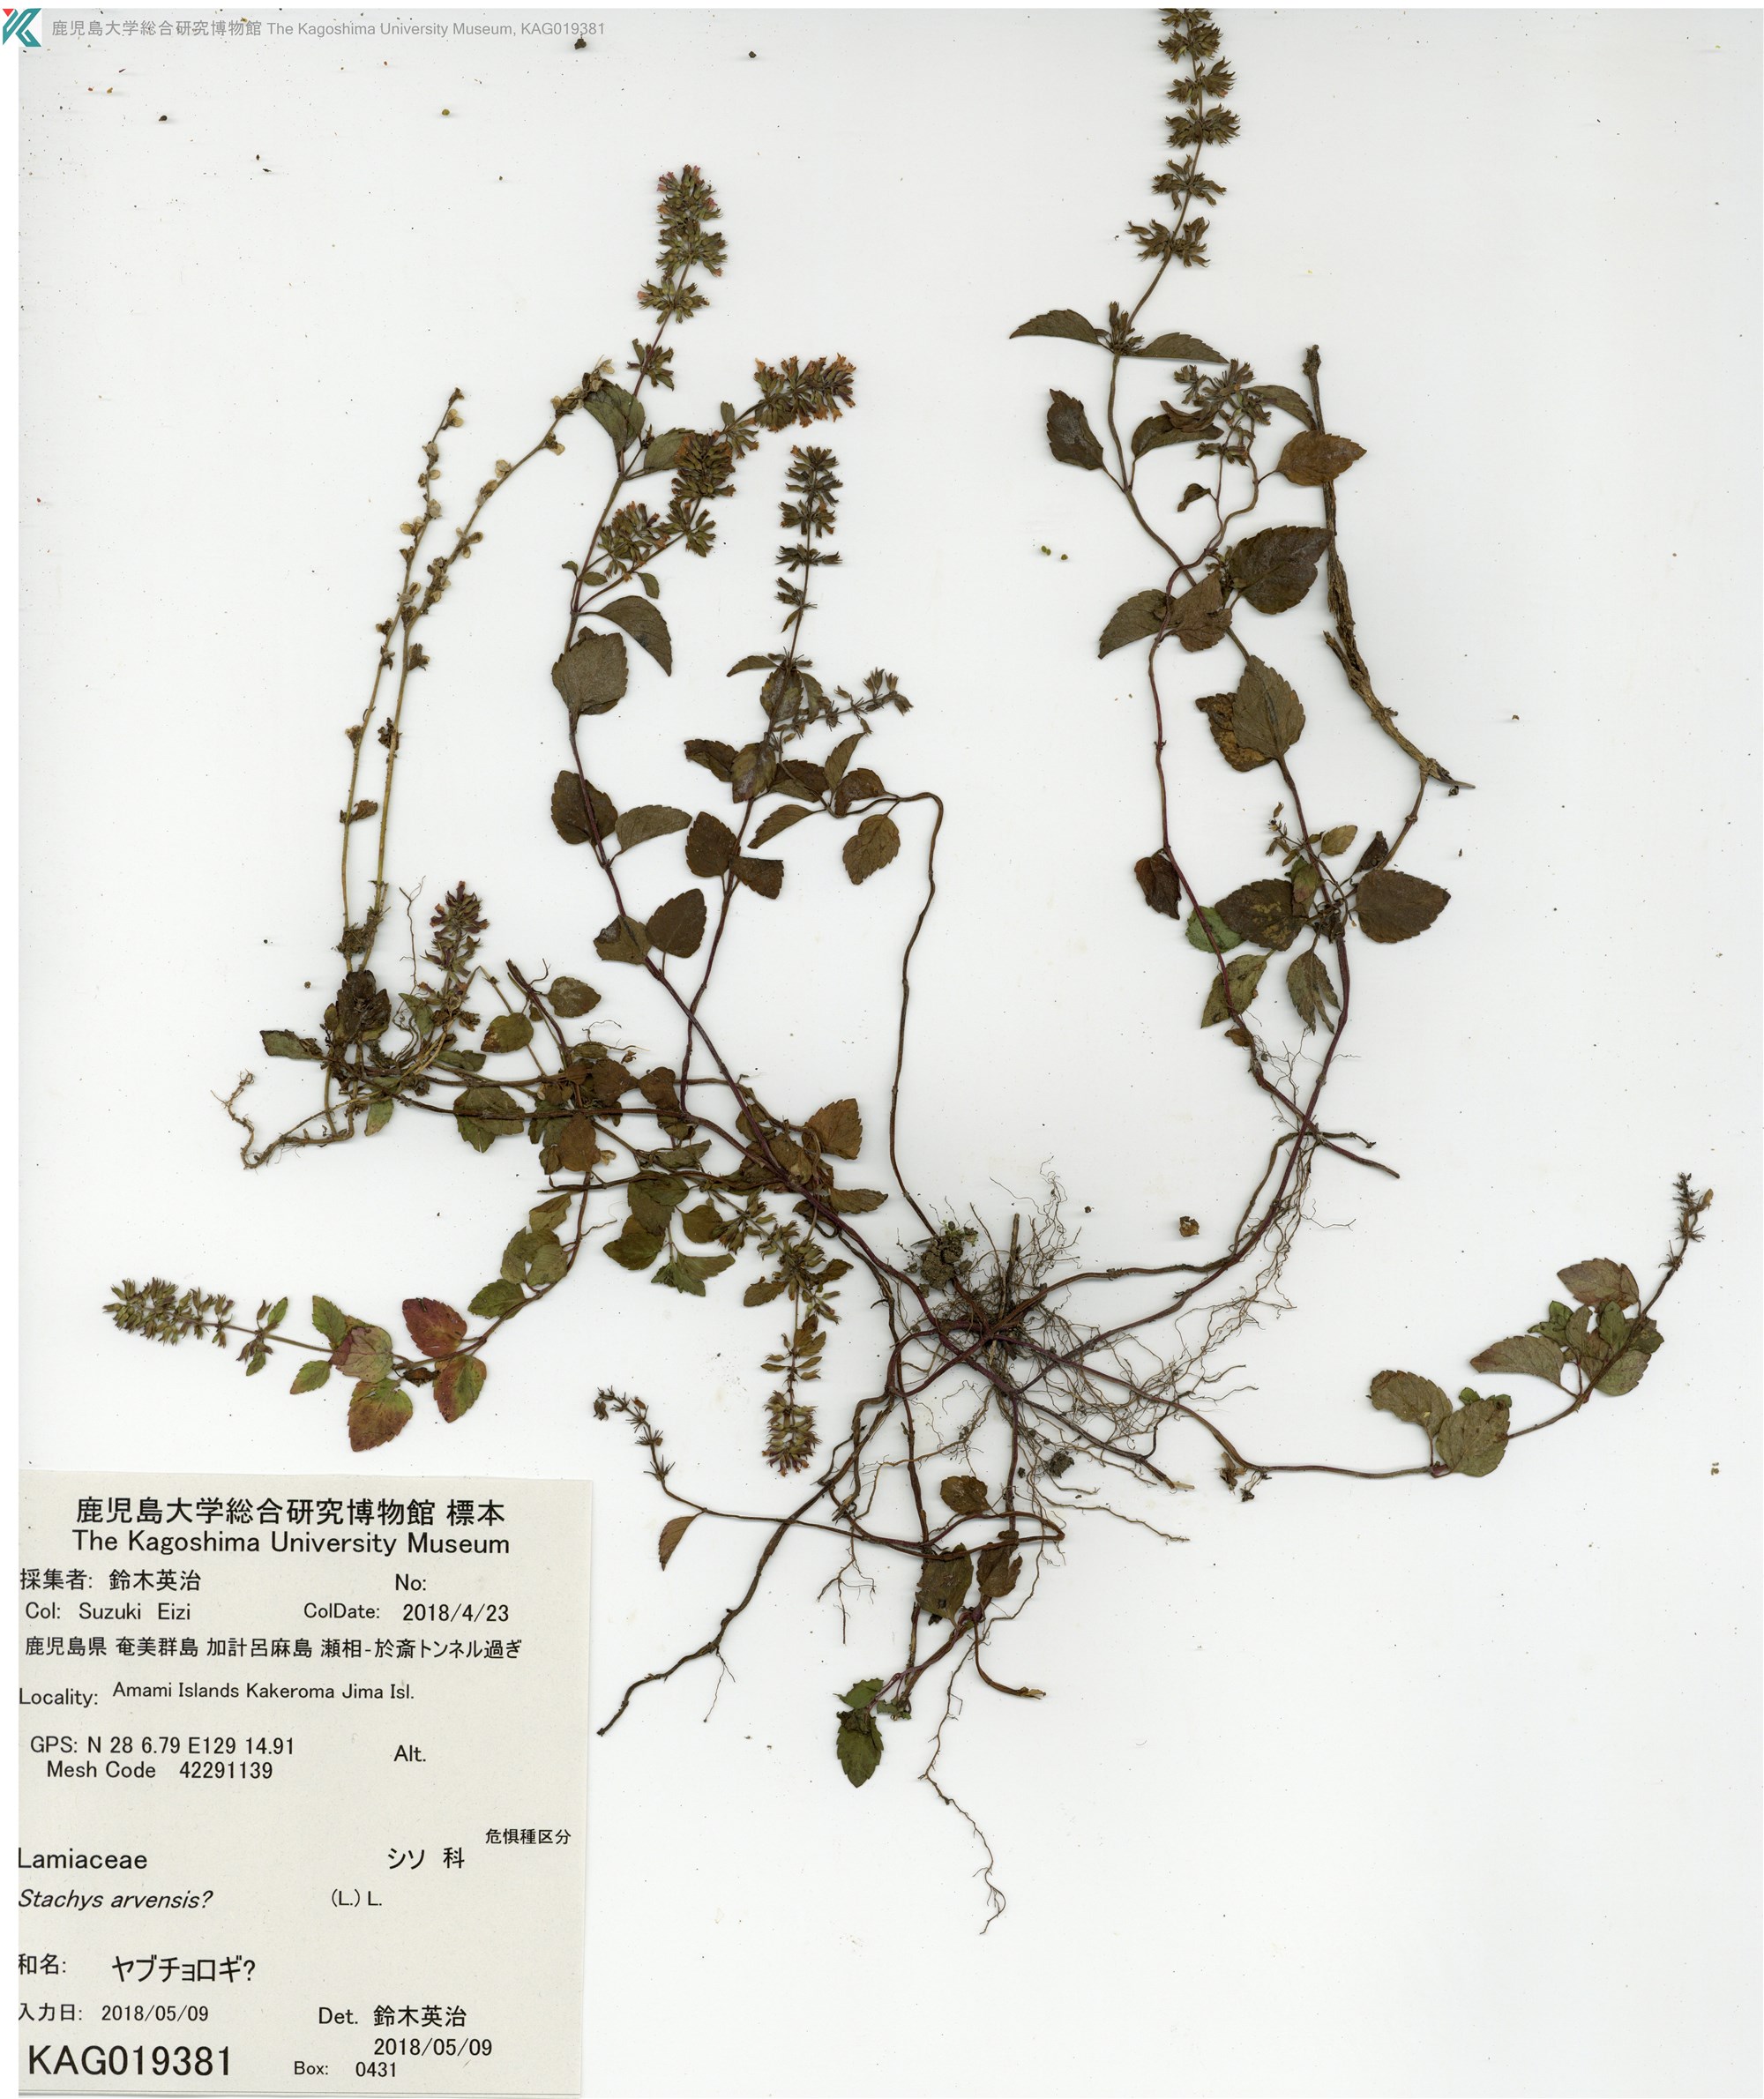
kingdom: Plantae
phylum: Tracheophyta
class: Magnoliopsida
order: Lamiales
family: Lamiaceae
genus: Clinopodium
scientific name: Clinopodium gracile
